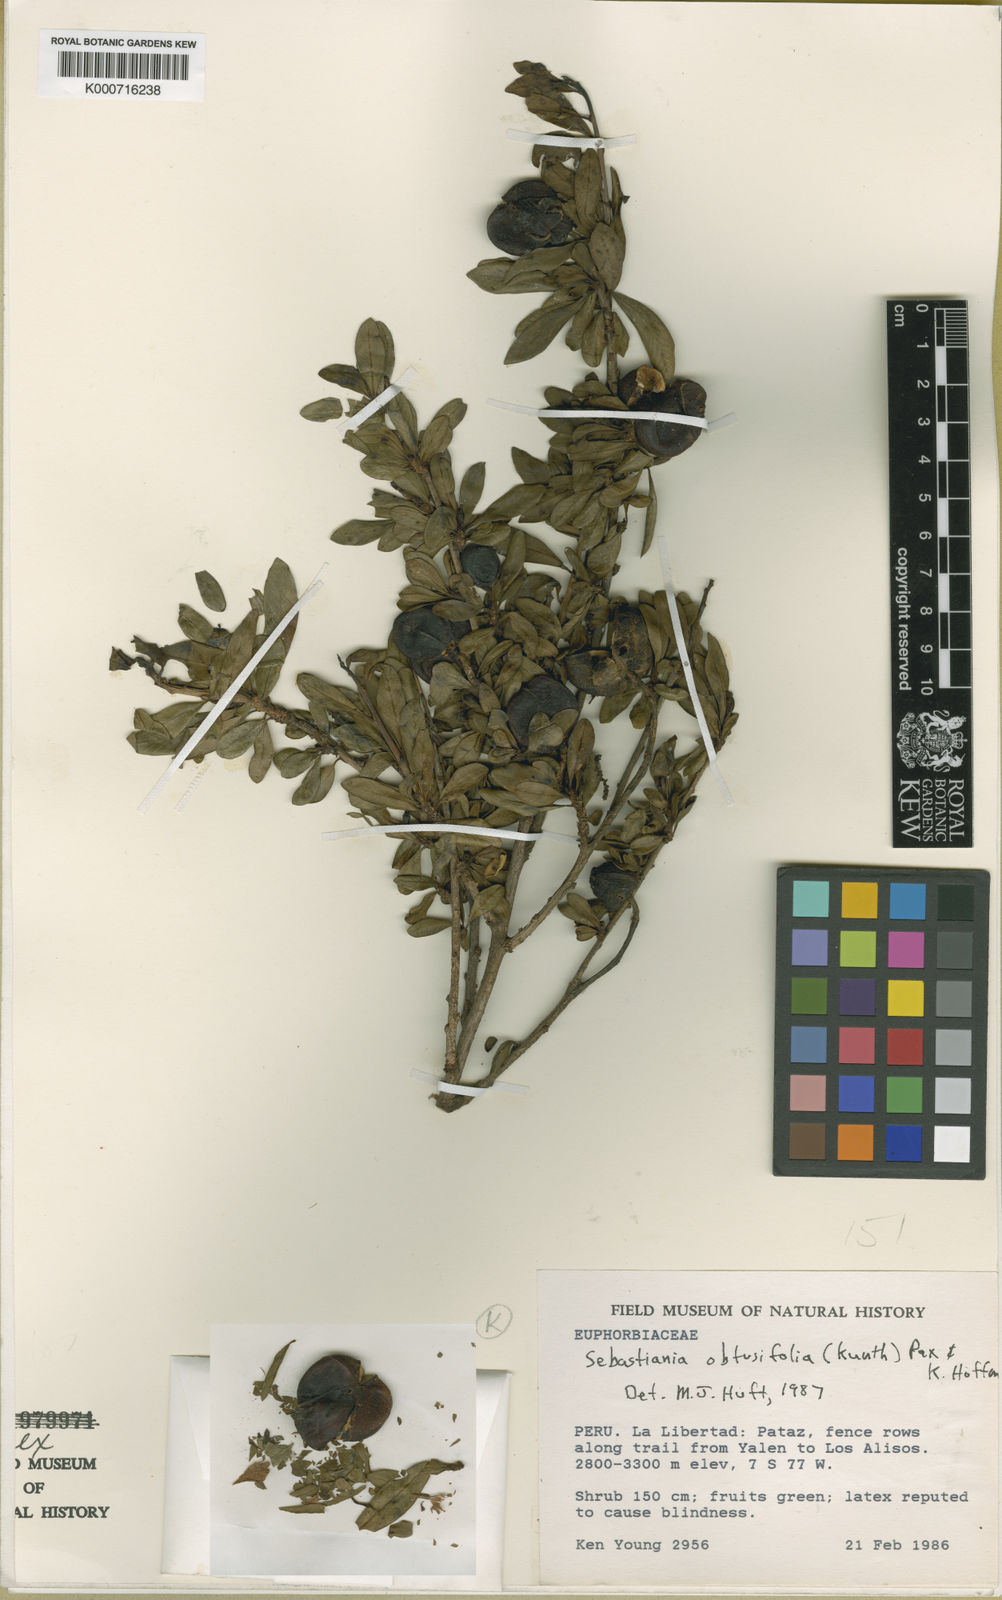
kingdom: Plantae
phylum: Tracheophyta
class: Magnoliopsida
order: Malpighiales
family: Euphorbiaceae
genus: Sebastiania
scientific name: Sebastiania obtusifolia
